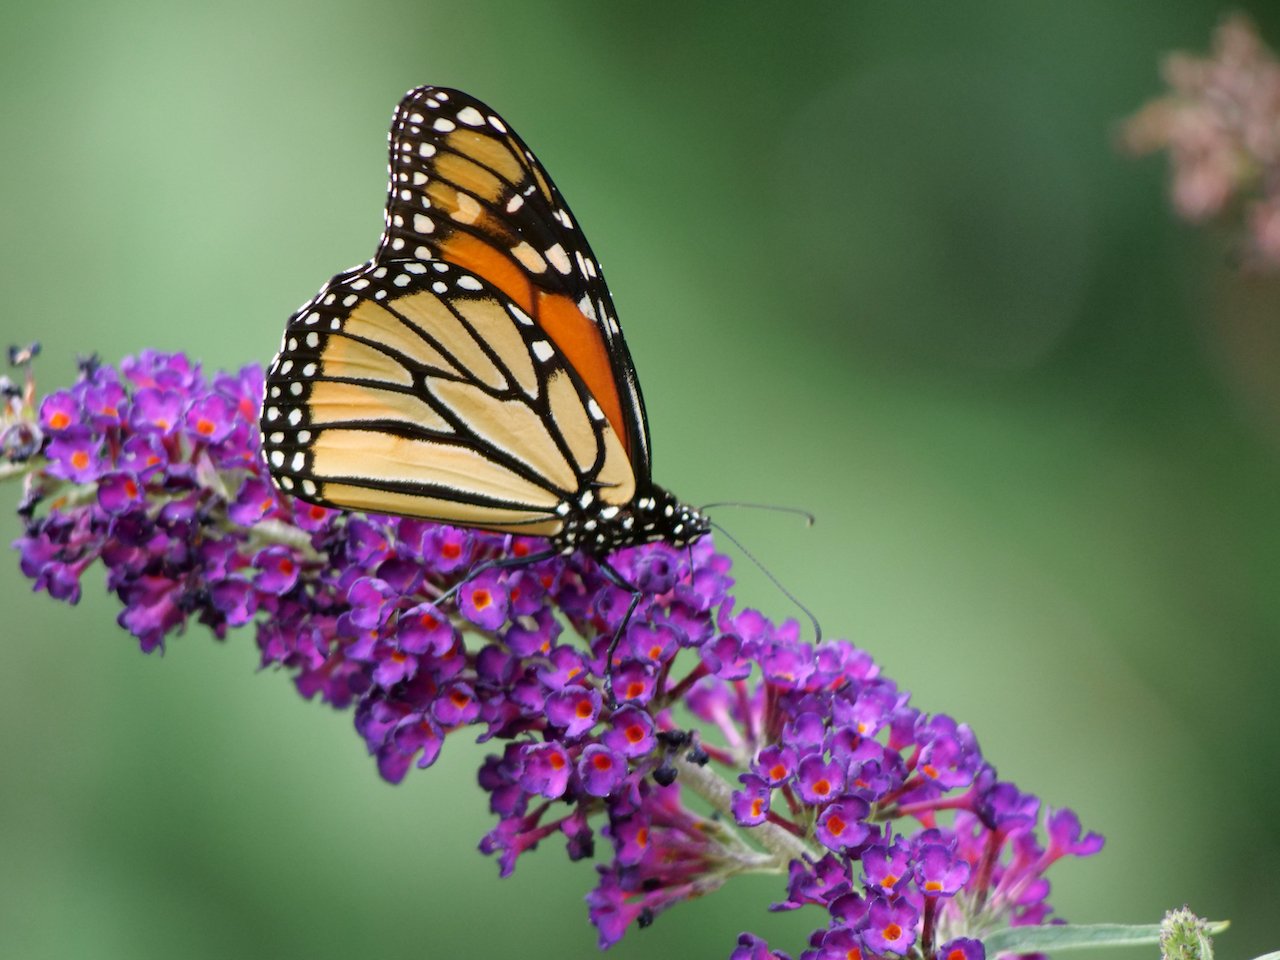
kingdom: Animalia
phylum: Arthropoda
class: Insecta
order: Lepidoptera
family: Nymphalidae
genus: Danaus
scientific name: Danaus plexippus
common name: Monarch
